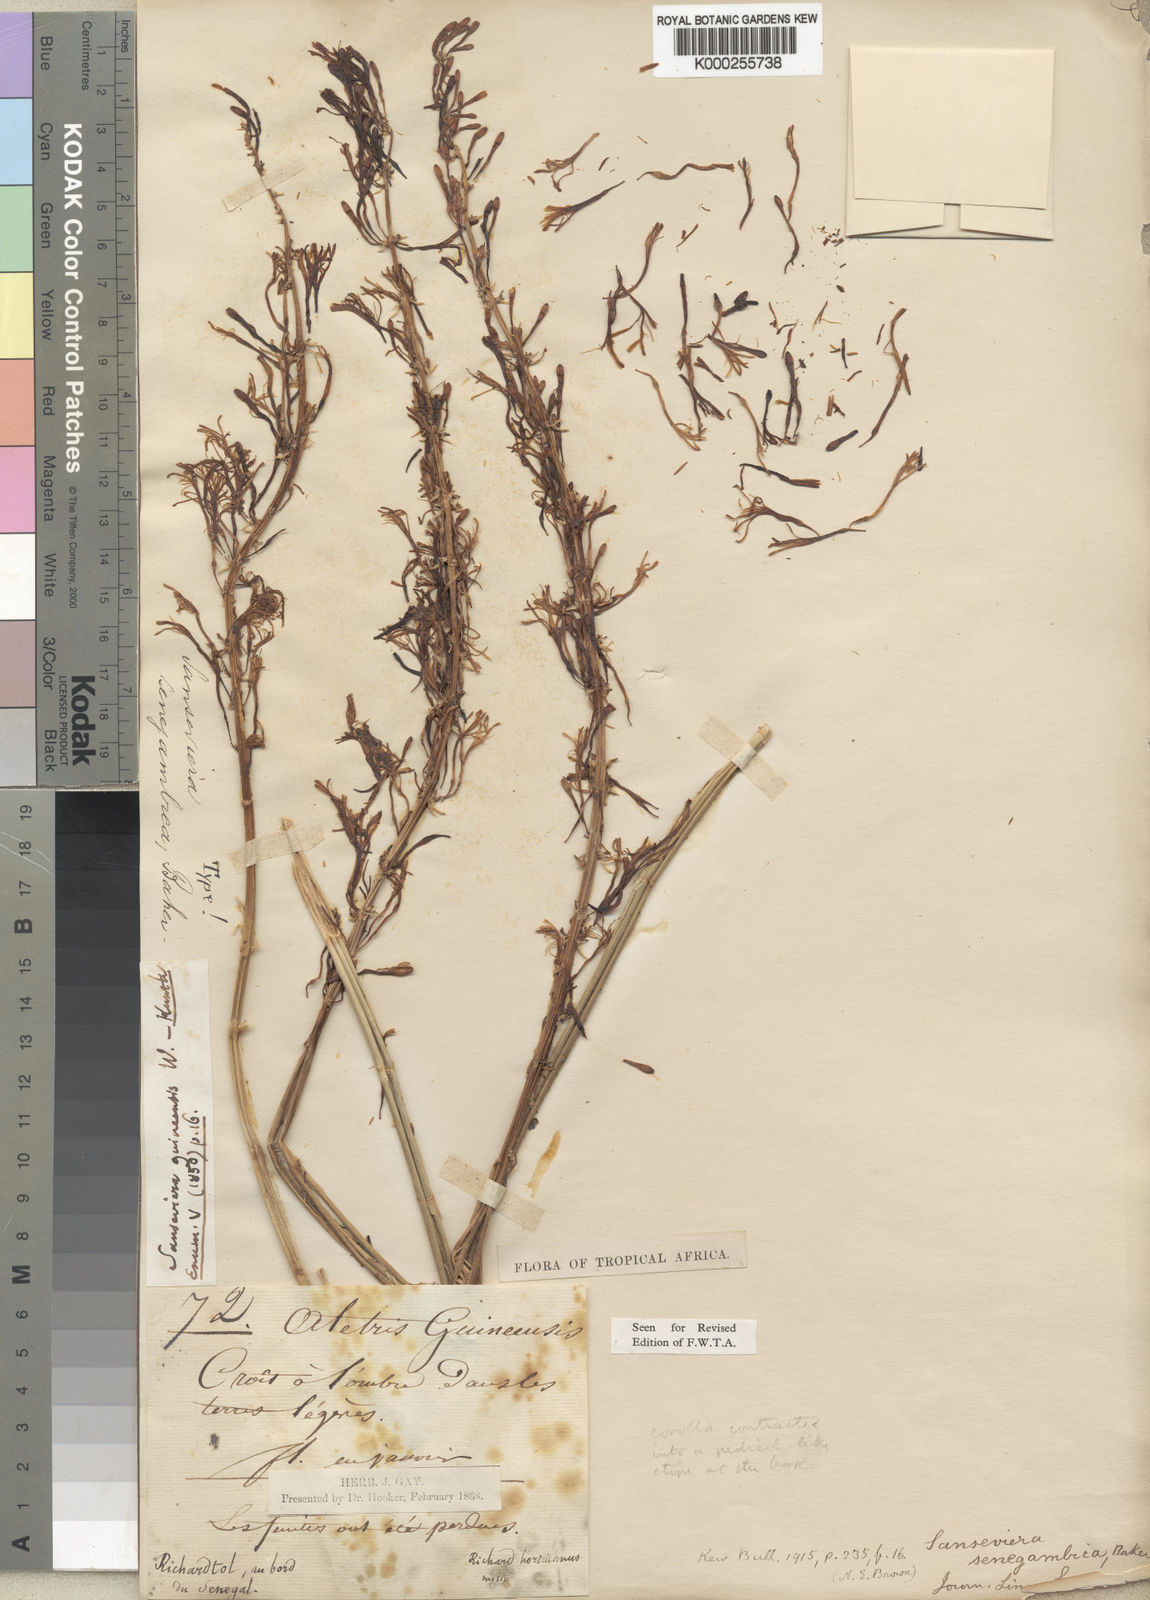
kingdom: Plantae
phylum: Tracheophyta
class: Liliopsida
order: Asparagales
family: Asparagaceae
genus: Dracaena
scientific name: Dracaena senegambica
